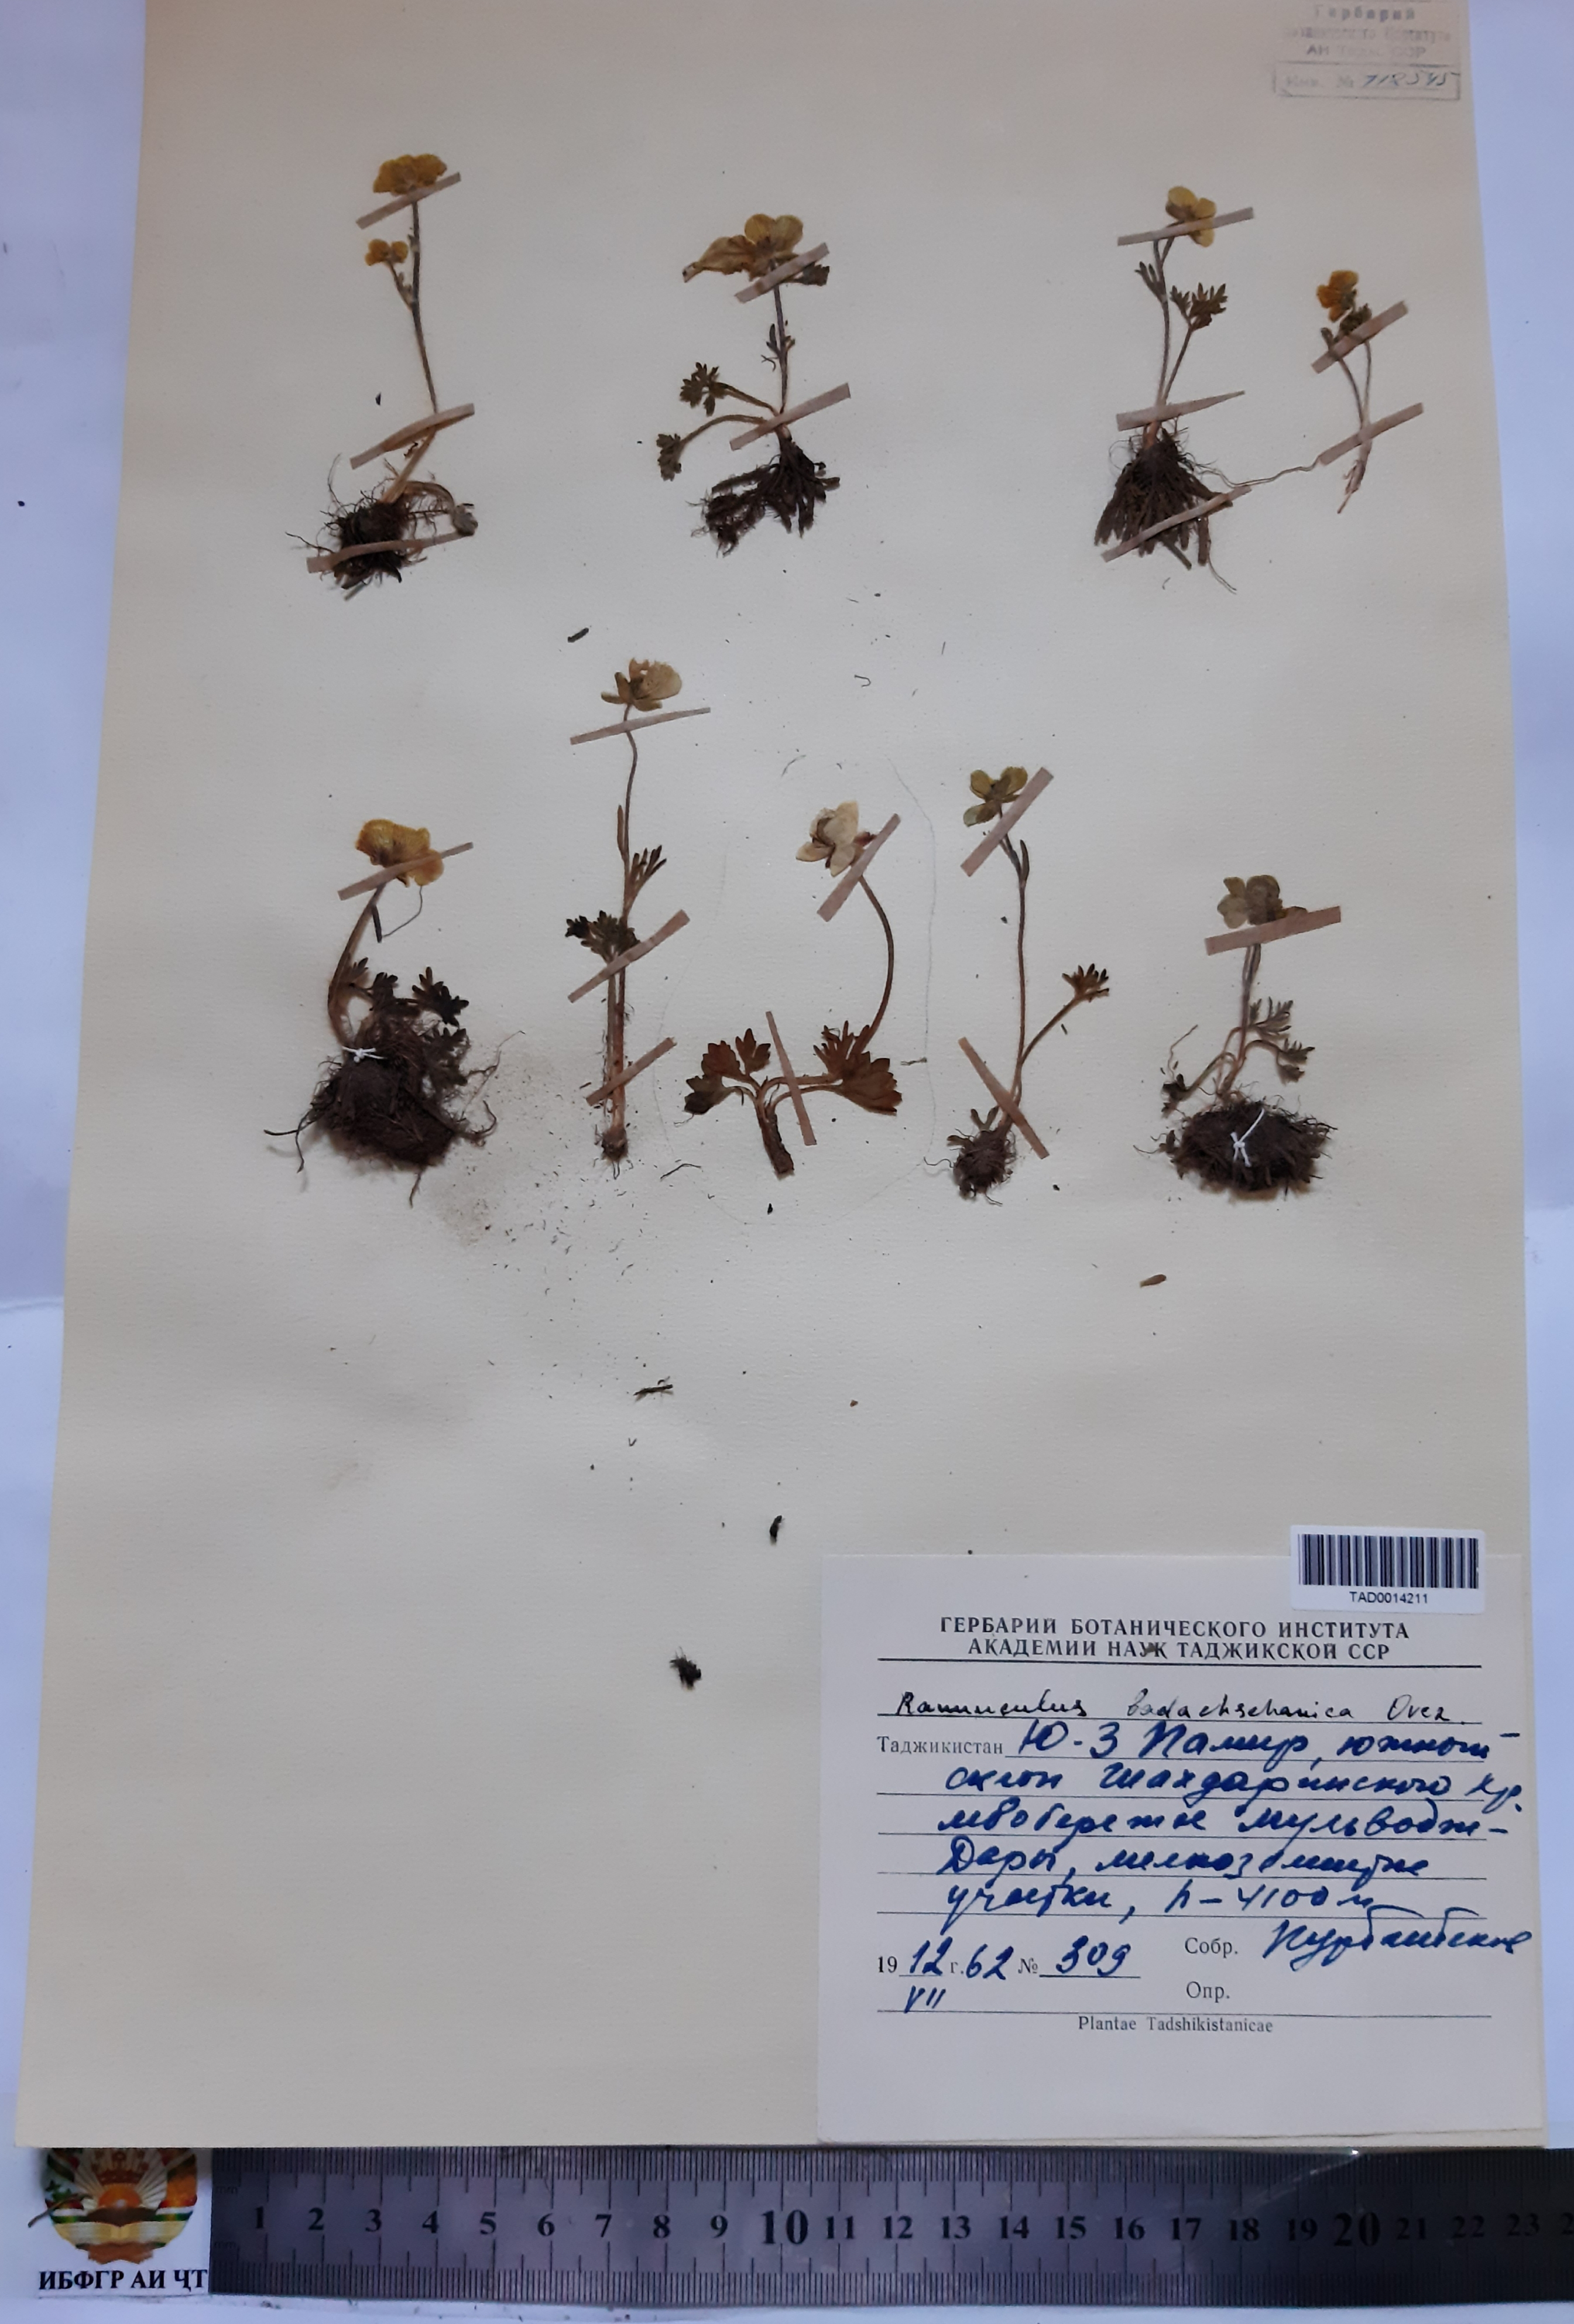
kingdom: Plantae
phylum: Tracheophyta
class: Magnoliopsida
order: Ranunculales
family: Ranunculaceae
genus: Ranunculus
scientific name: Ranunculus badachschanicus
